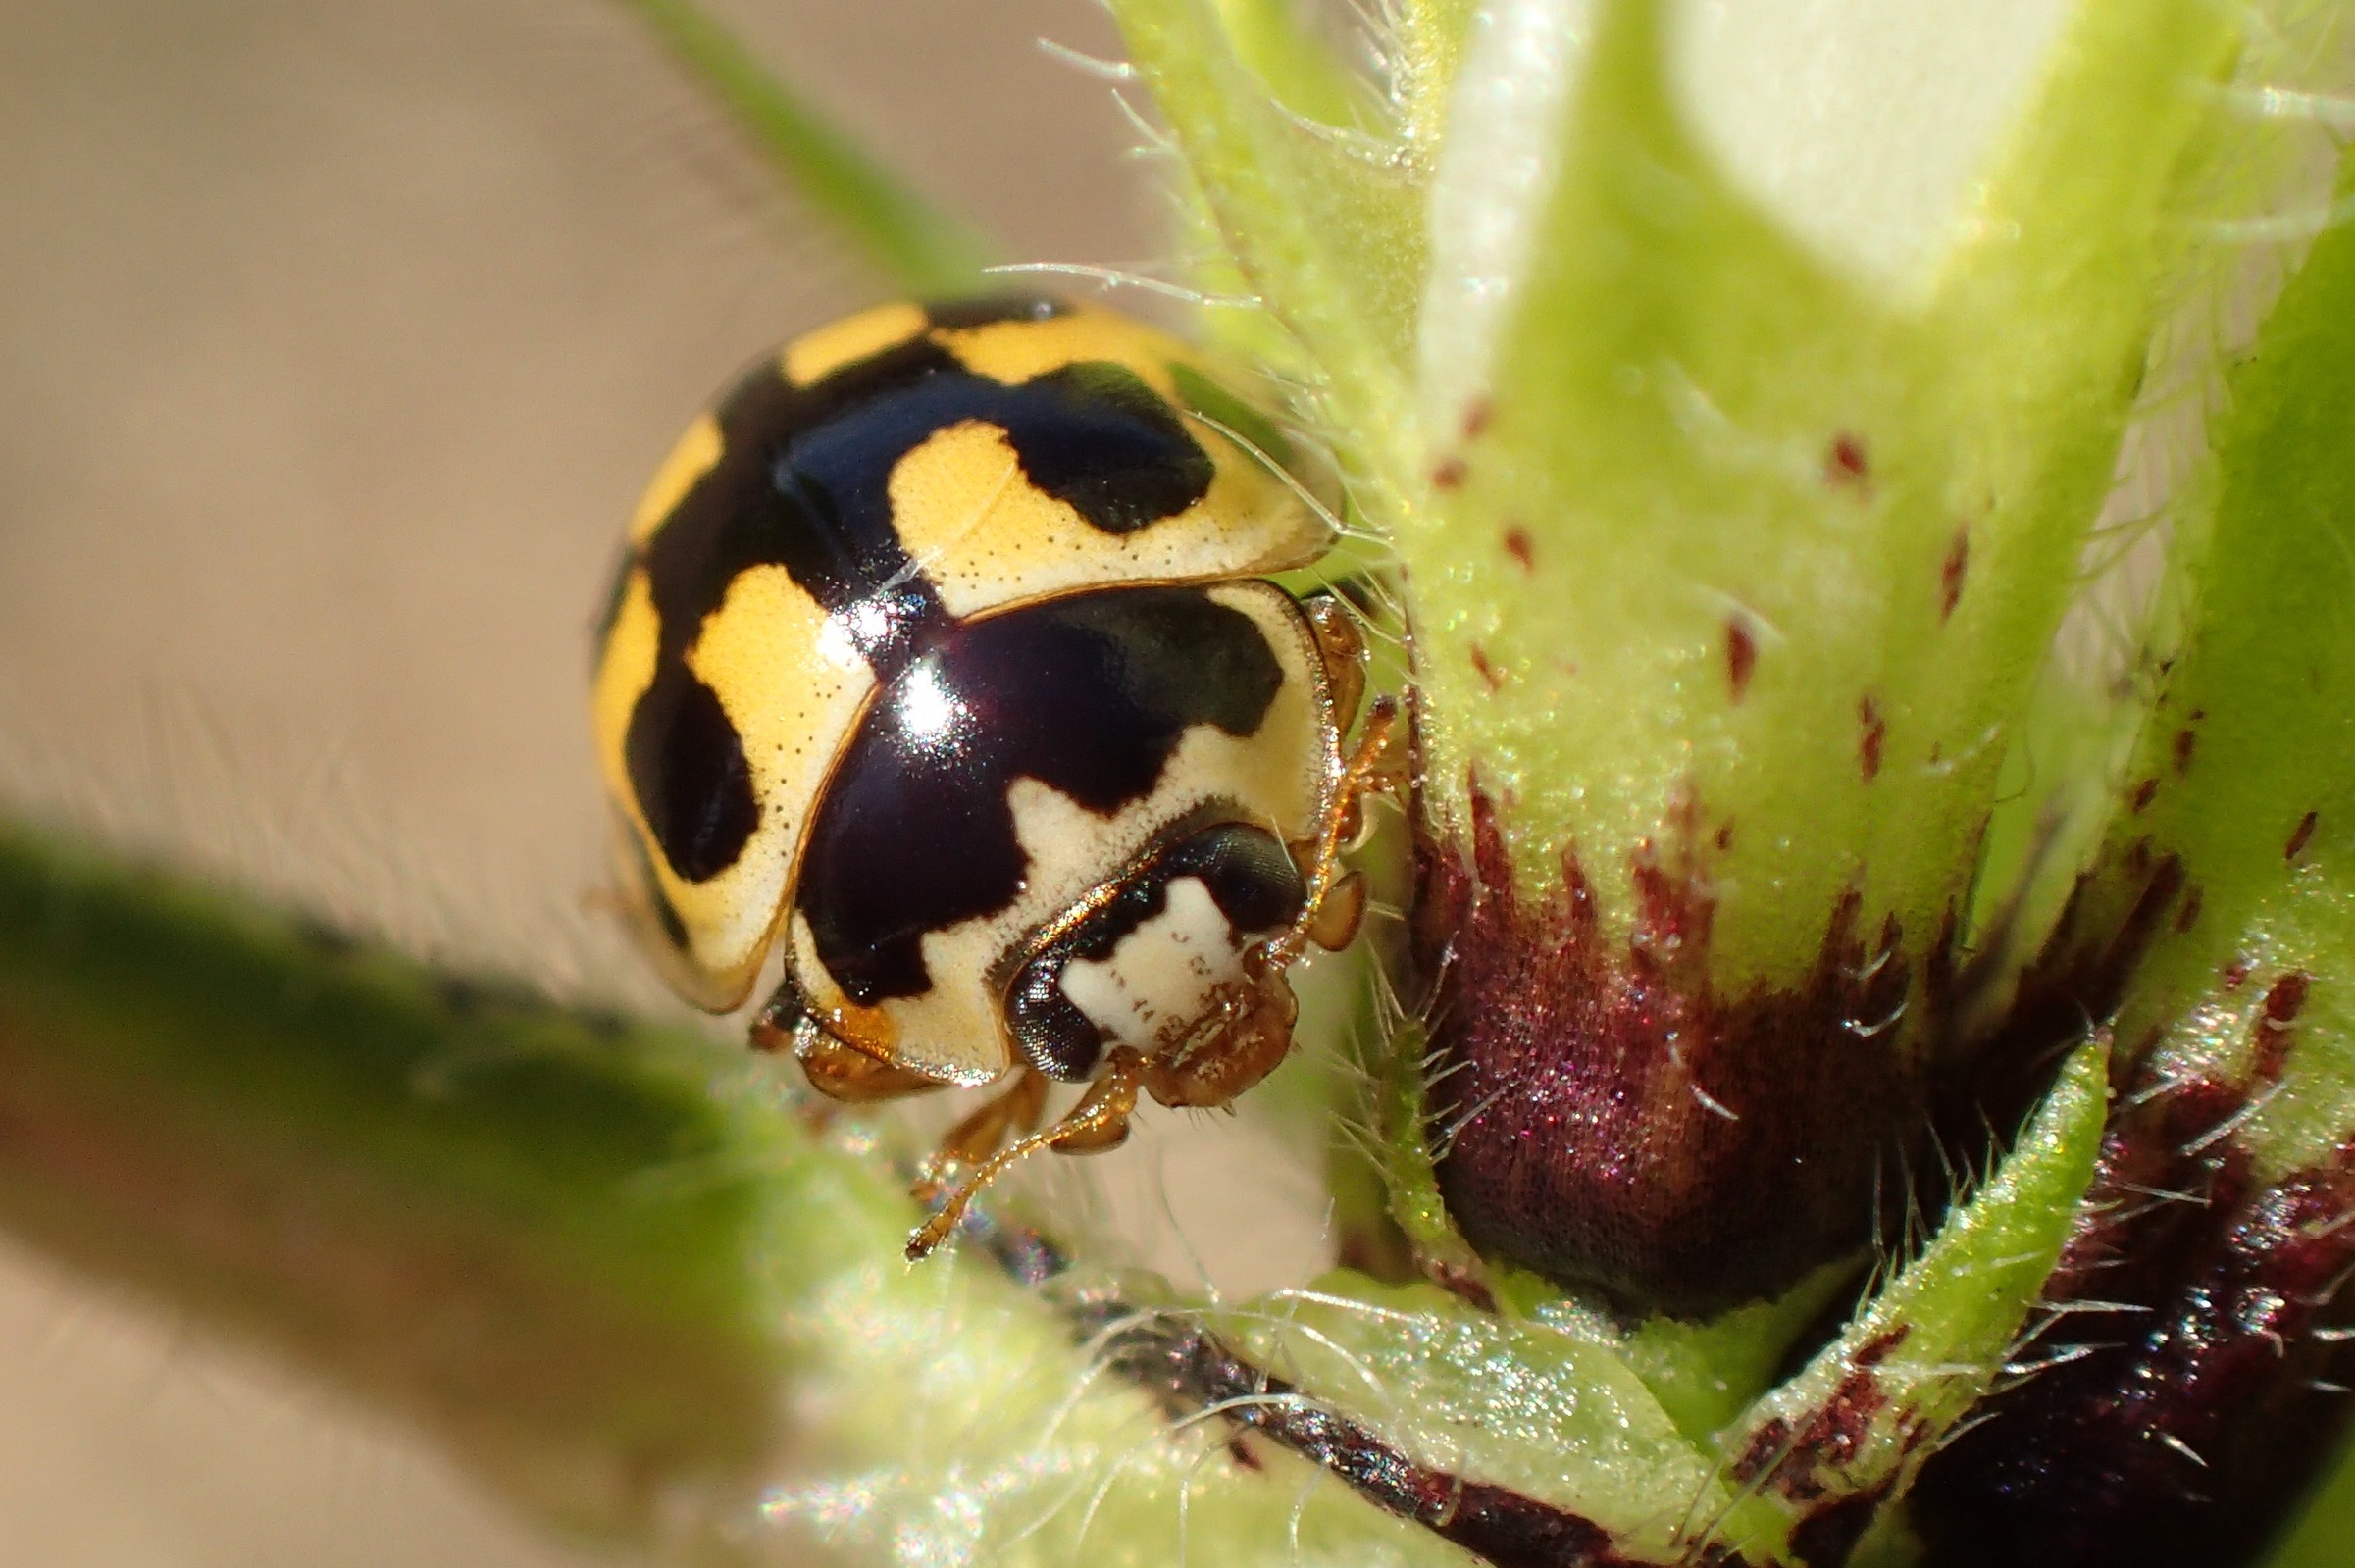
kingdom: Animalia
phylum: Arthropoda
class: Insecta
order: Coleoptera
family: Coccinellidae
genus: Propylaea
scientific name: Propylaea quatuordecimpunctata
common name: Skakbræt
